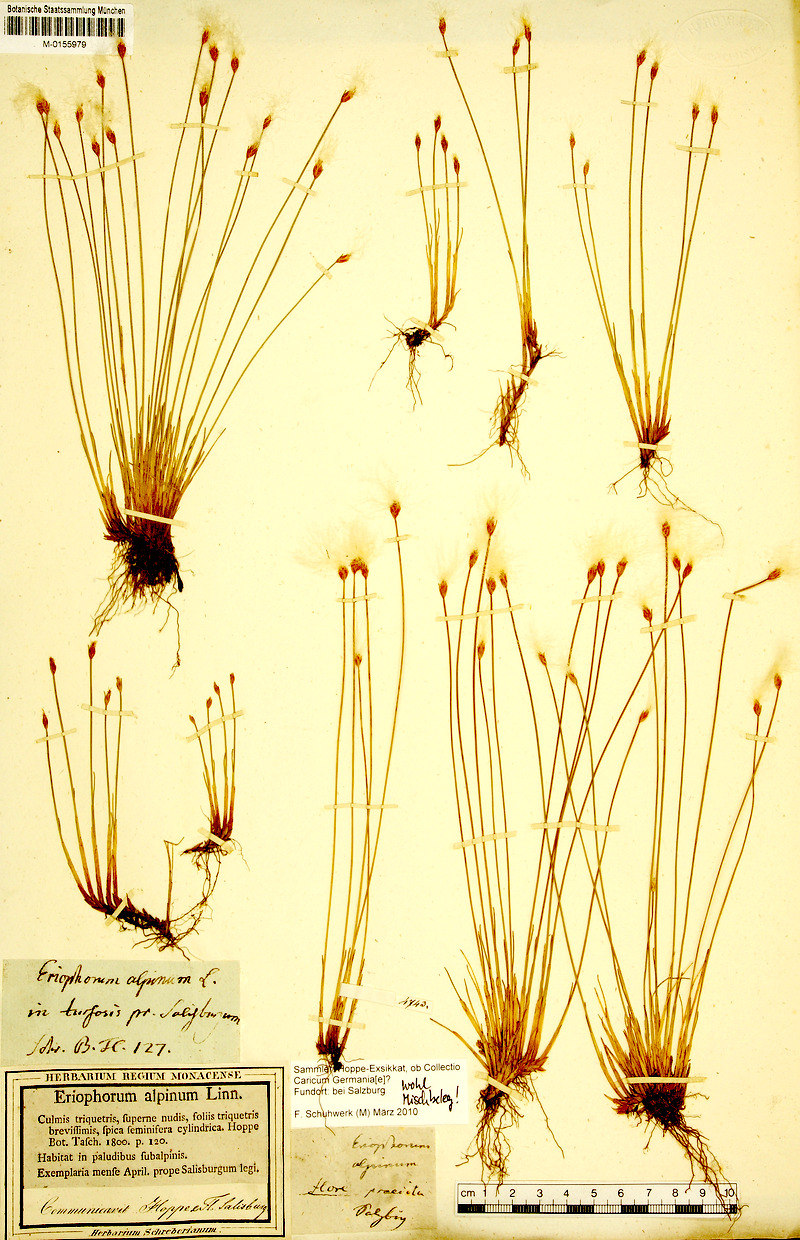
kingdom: Plantae
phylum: Tracheophyta
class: Liliopsida
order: Poales
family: Cyperaceae
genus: Trichophorum
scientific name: Trichophorum alpinum
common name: Alpine bulrush
